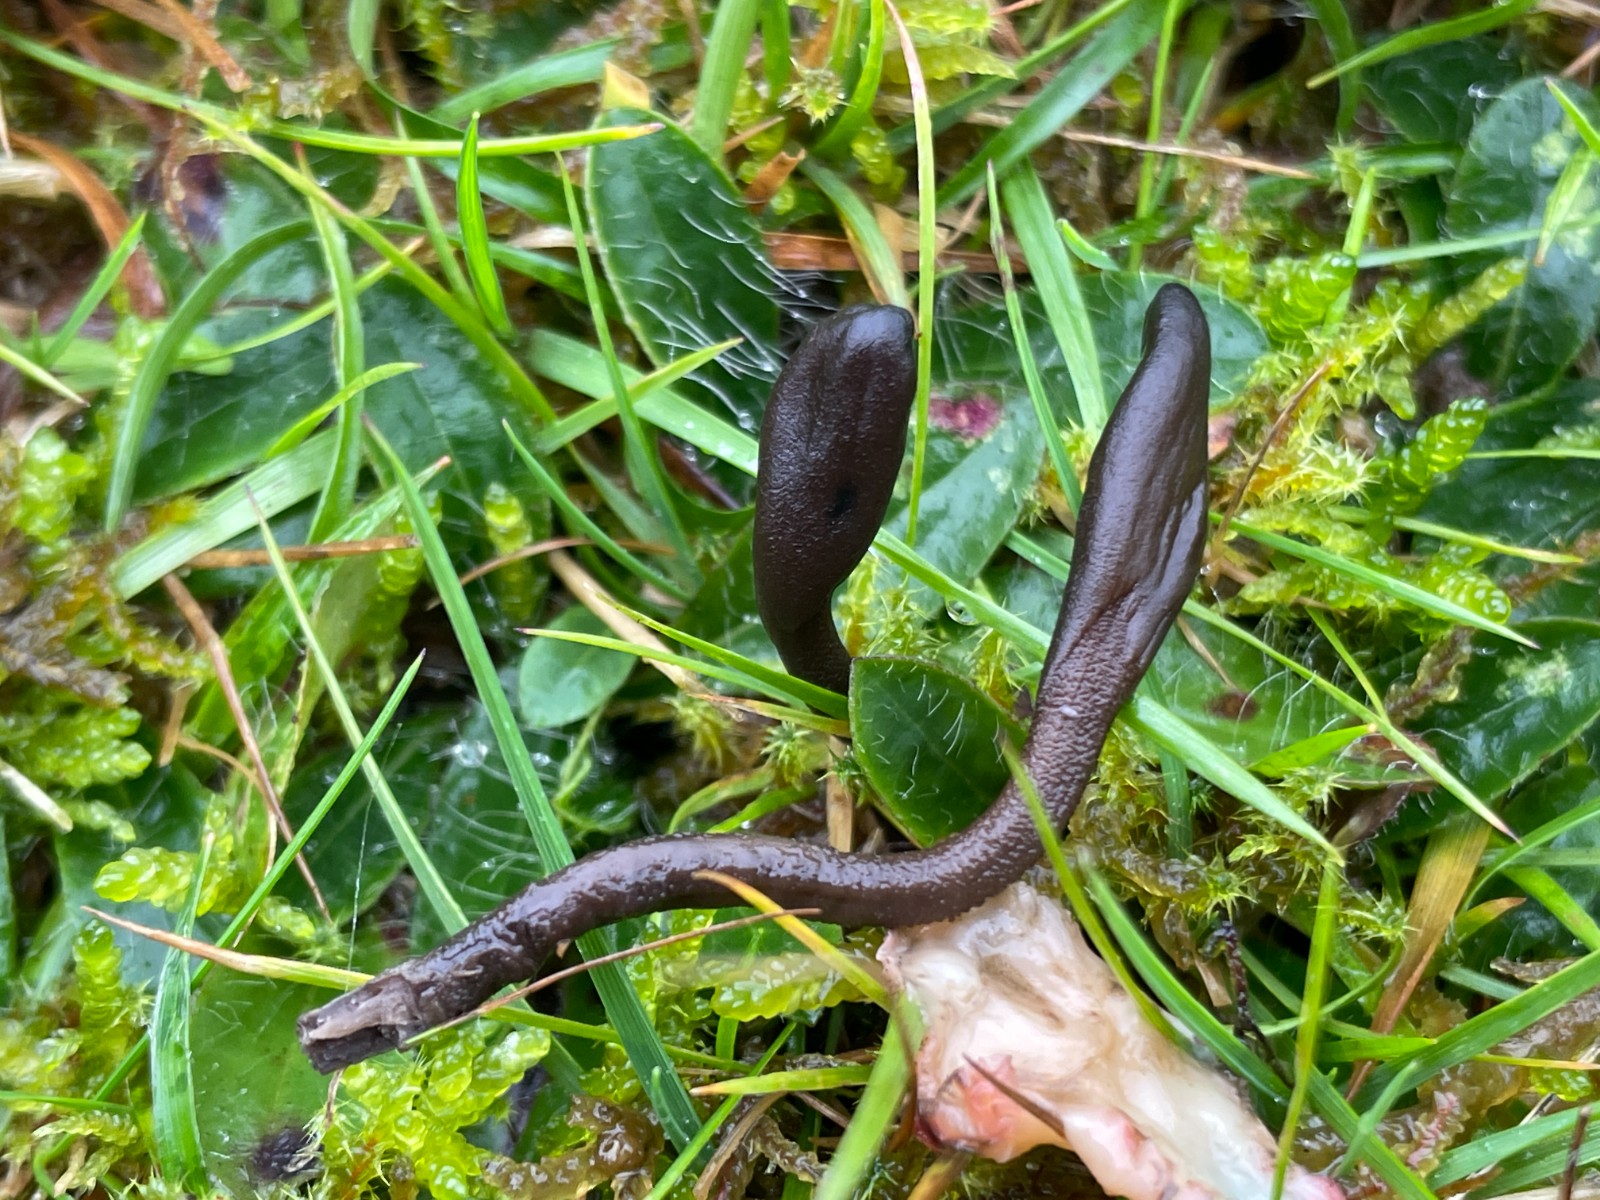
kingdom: Fungi
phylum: Ascomycota
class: Geoglossomycetes
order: Geoglossales
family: Geoglossaceae
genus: Geoglossum
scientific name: Geoglossum fallax
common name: småskællet jordtunge
